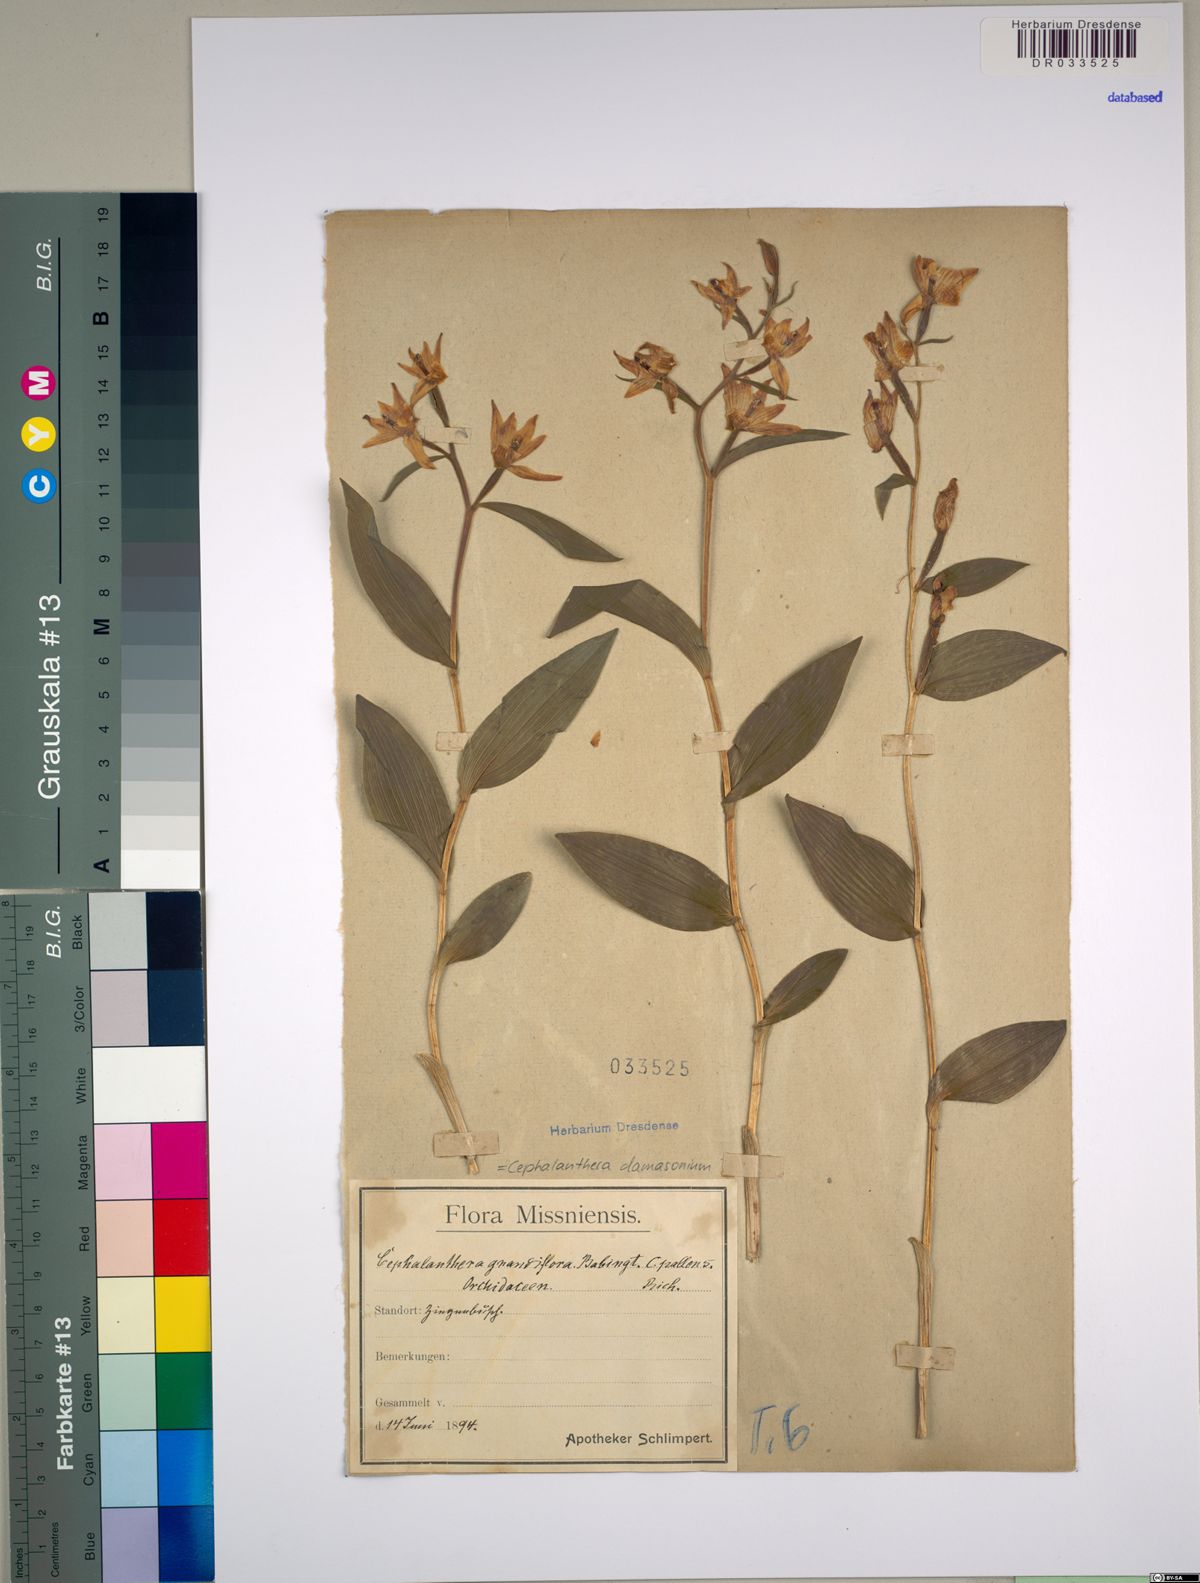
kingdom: Plantae
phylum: Tracheophyta
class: Liliopsida
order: Asparagales
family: Orchidaceae
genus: Cephalanthera
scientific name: Cephalanthera damasonium
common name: White helleborine
